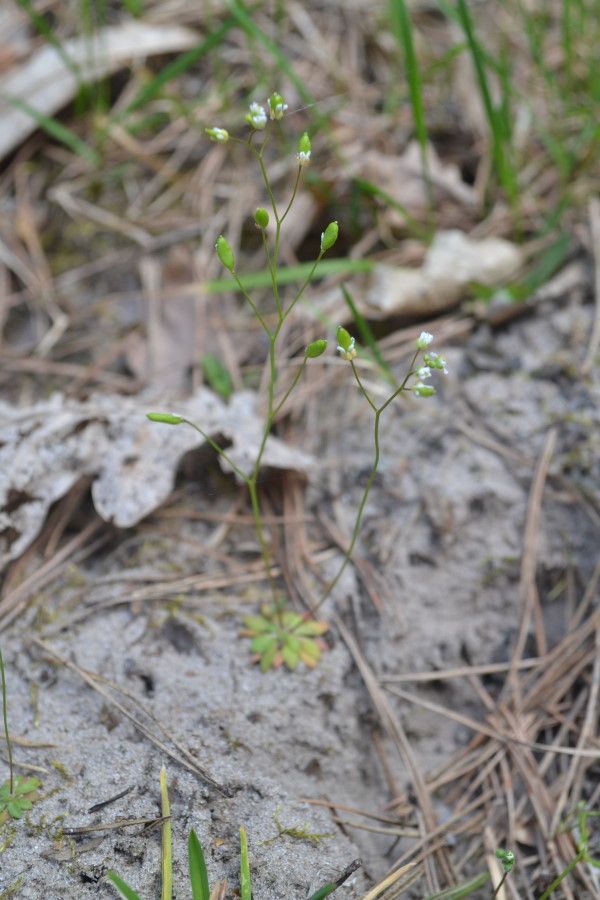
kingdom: Plantae
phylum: Tracheophyta
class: Magnoliopsida
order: Brassicales
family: Brassicaceae
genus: Draba
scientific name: Draba verna
